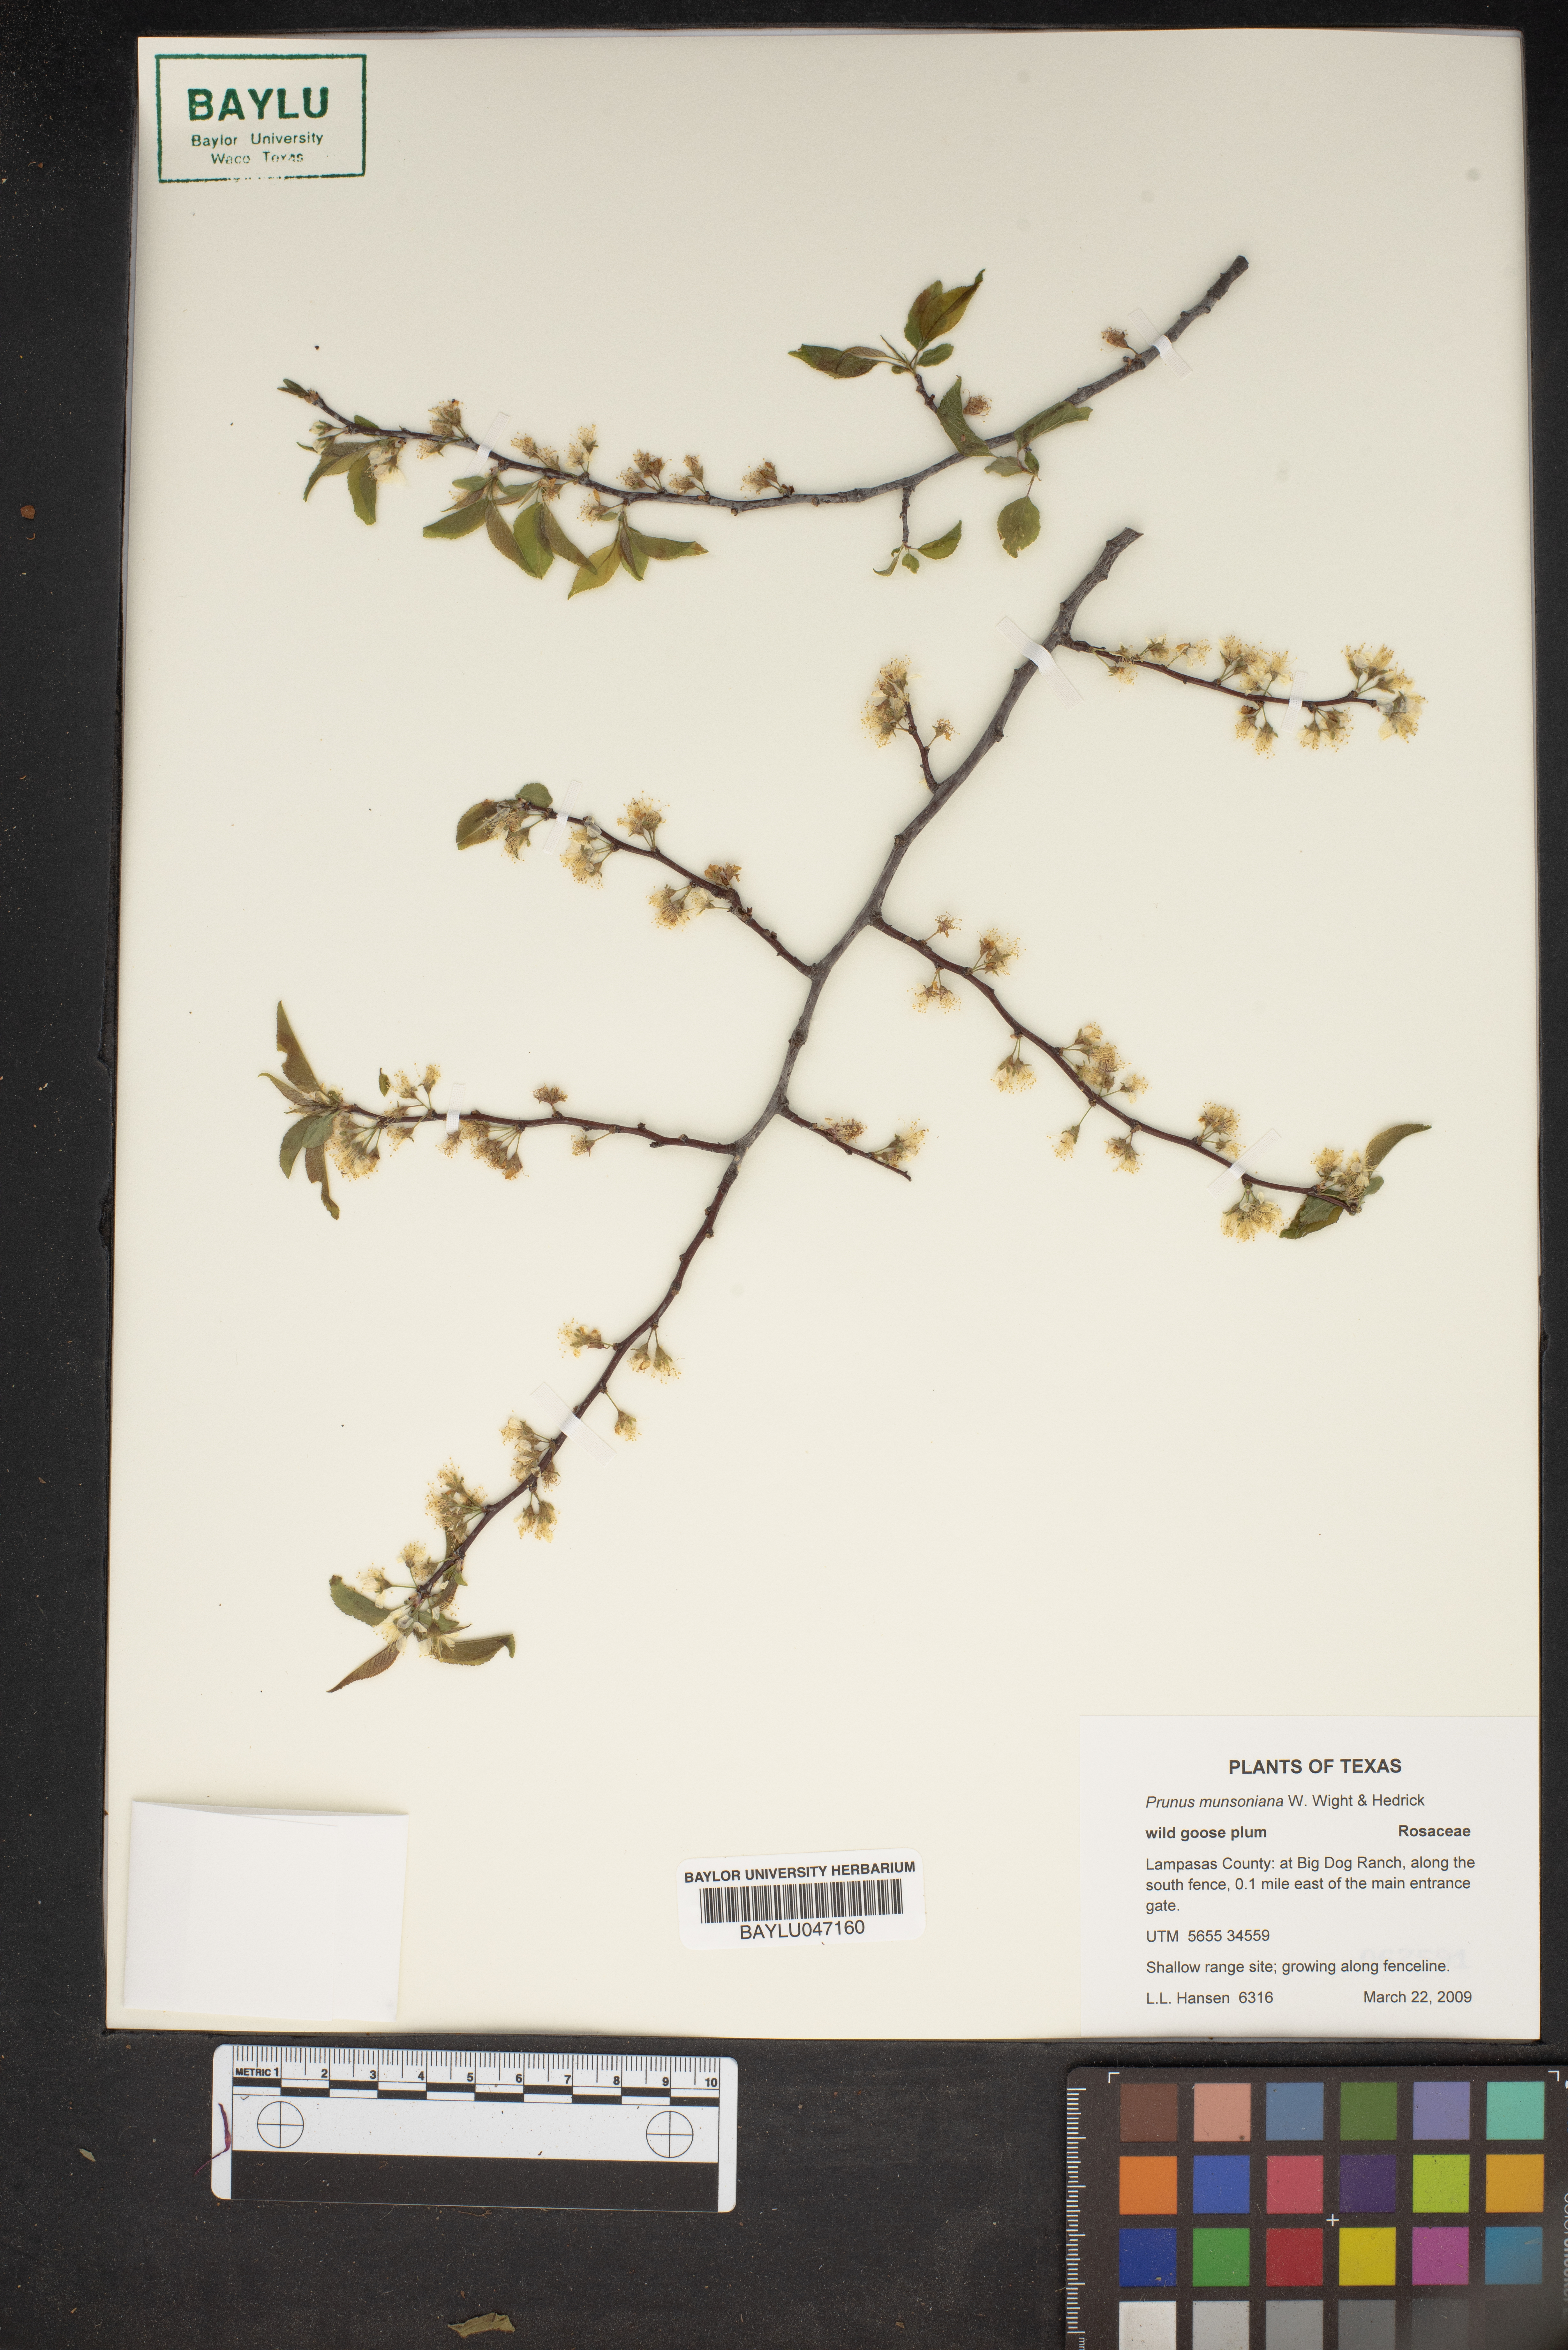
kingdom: Plantae
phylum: Tracheophyta
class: Magnoliopsida
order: Rosales
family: Rosaceae
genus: Prunus
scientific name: Prunus munsoniana
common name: Creek plum
